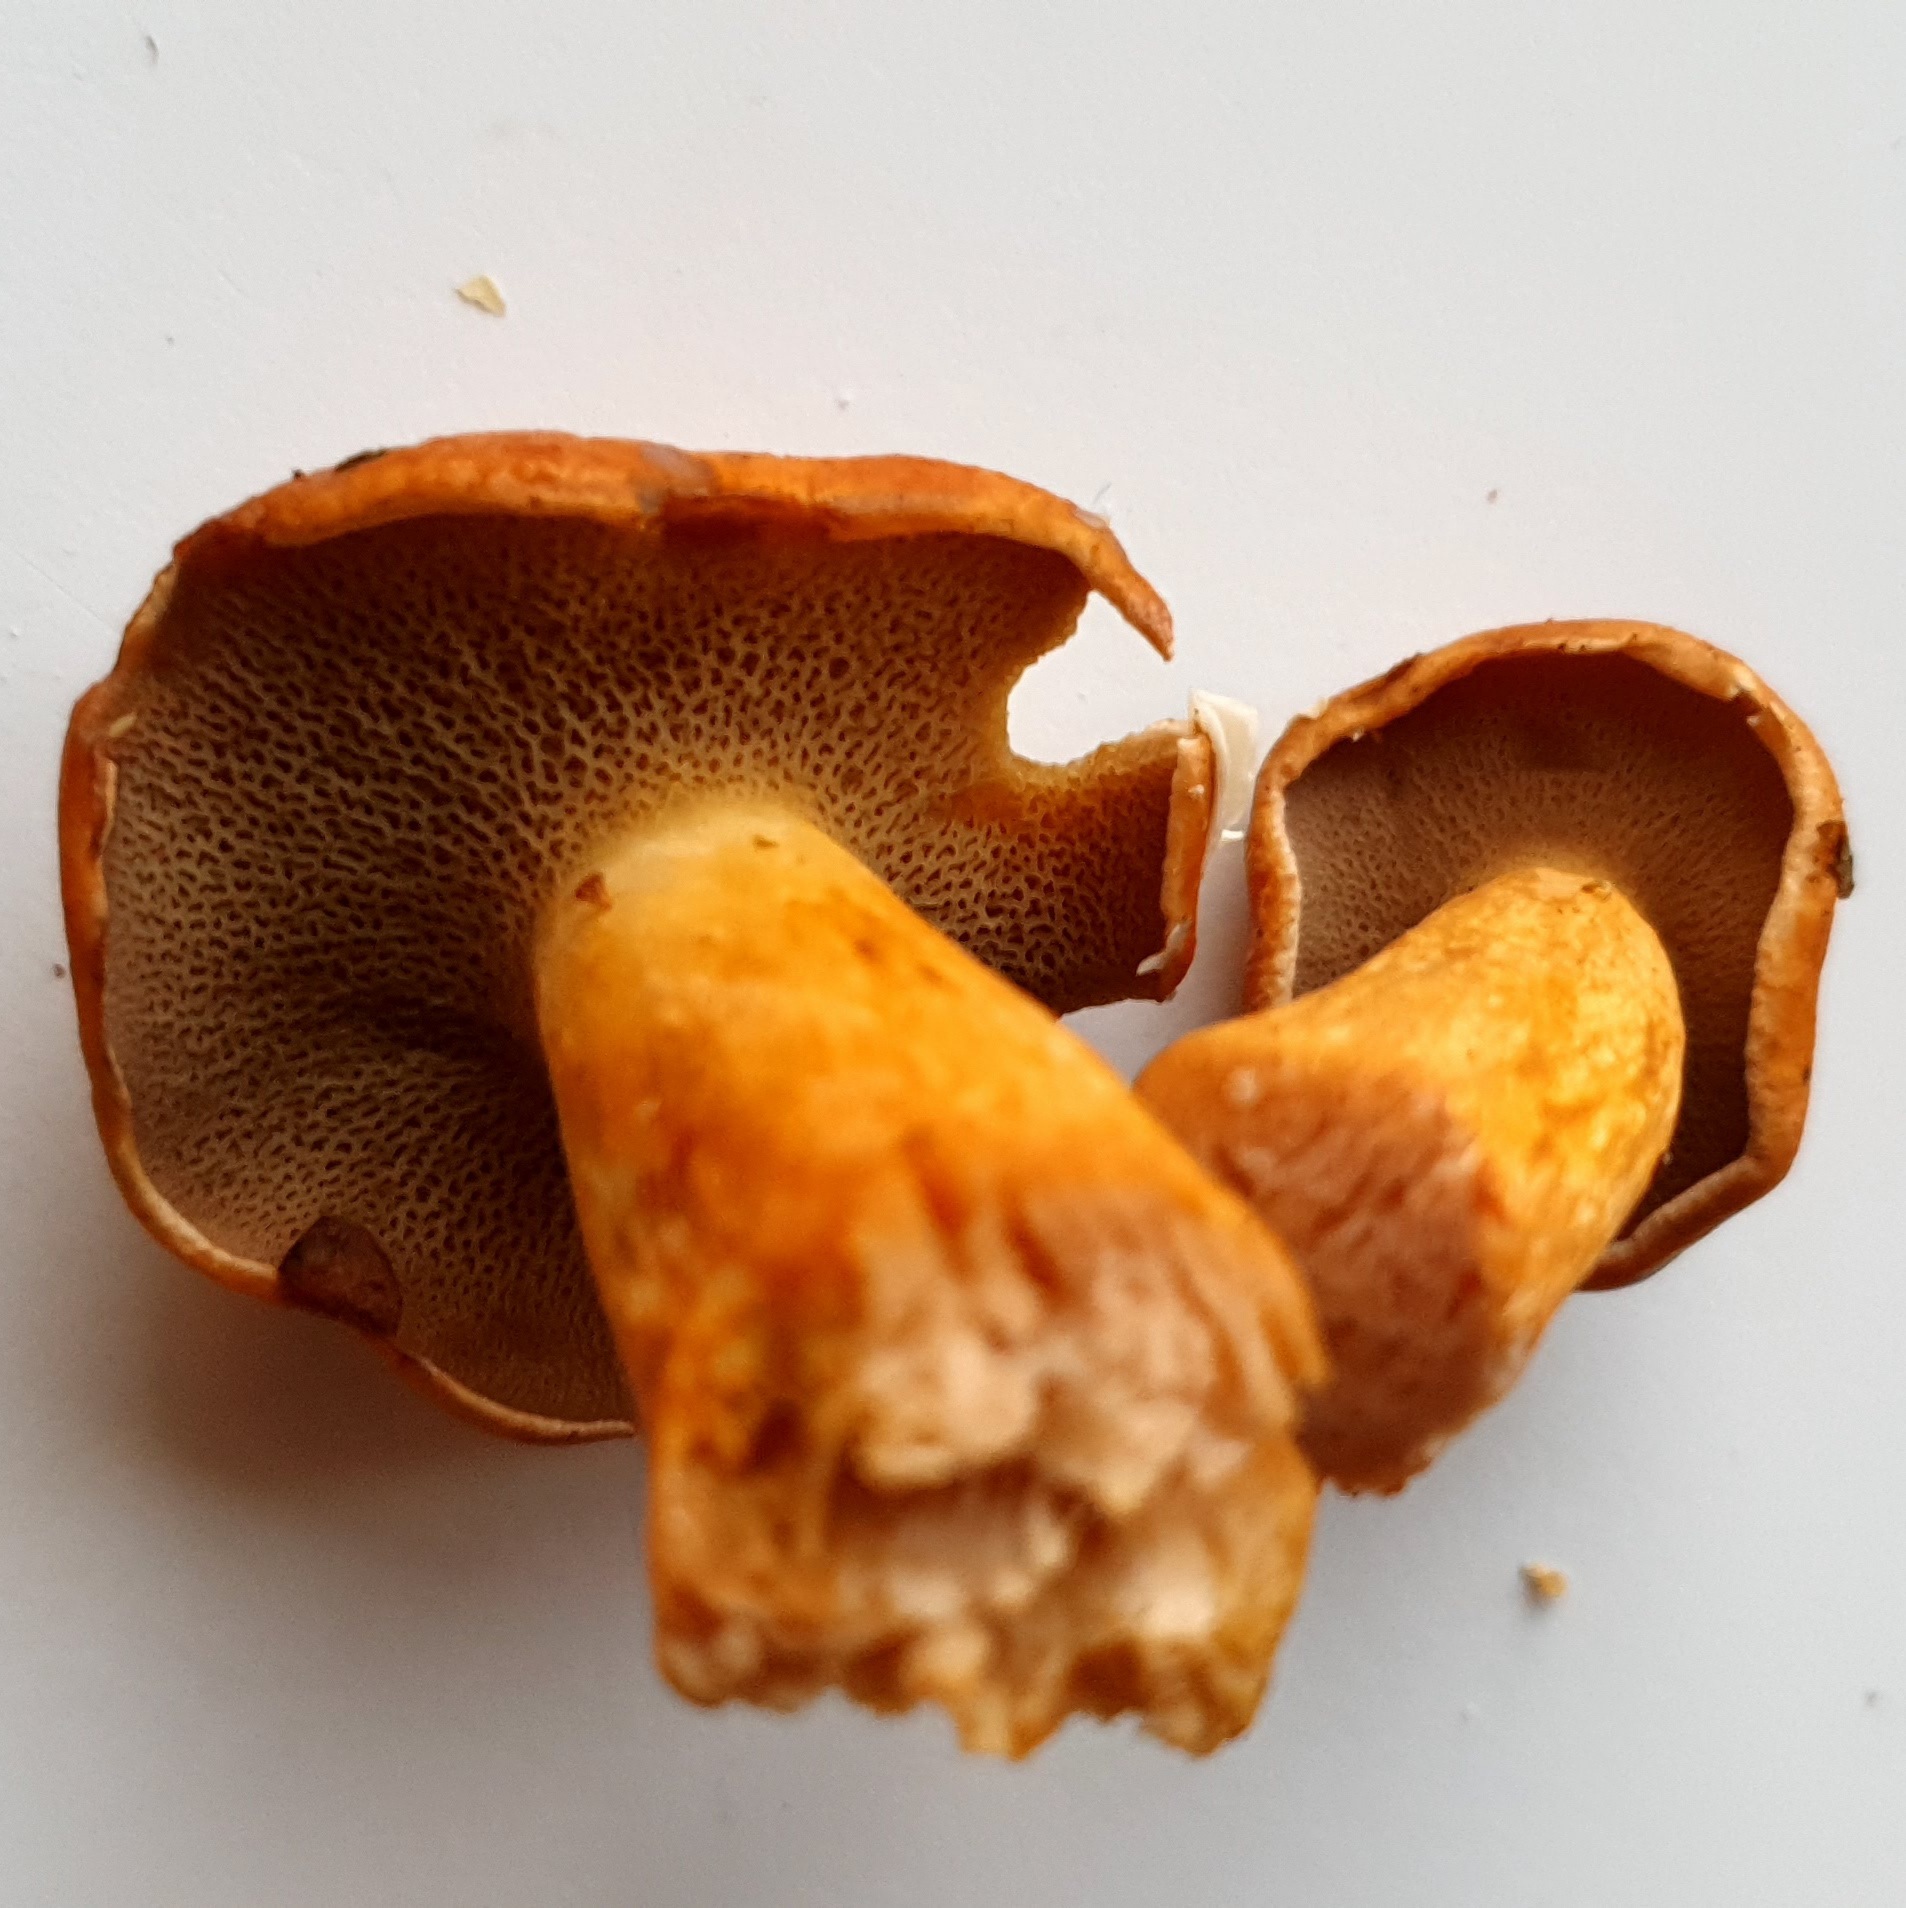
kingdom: Fungi
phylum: Basidiomycota
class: Agaricomycetes
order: Boletales
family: Suillaceae
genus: Suillus
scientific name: Suillus bovinus
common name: grovporet slimrørhat
